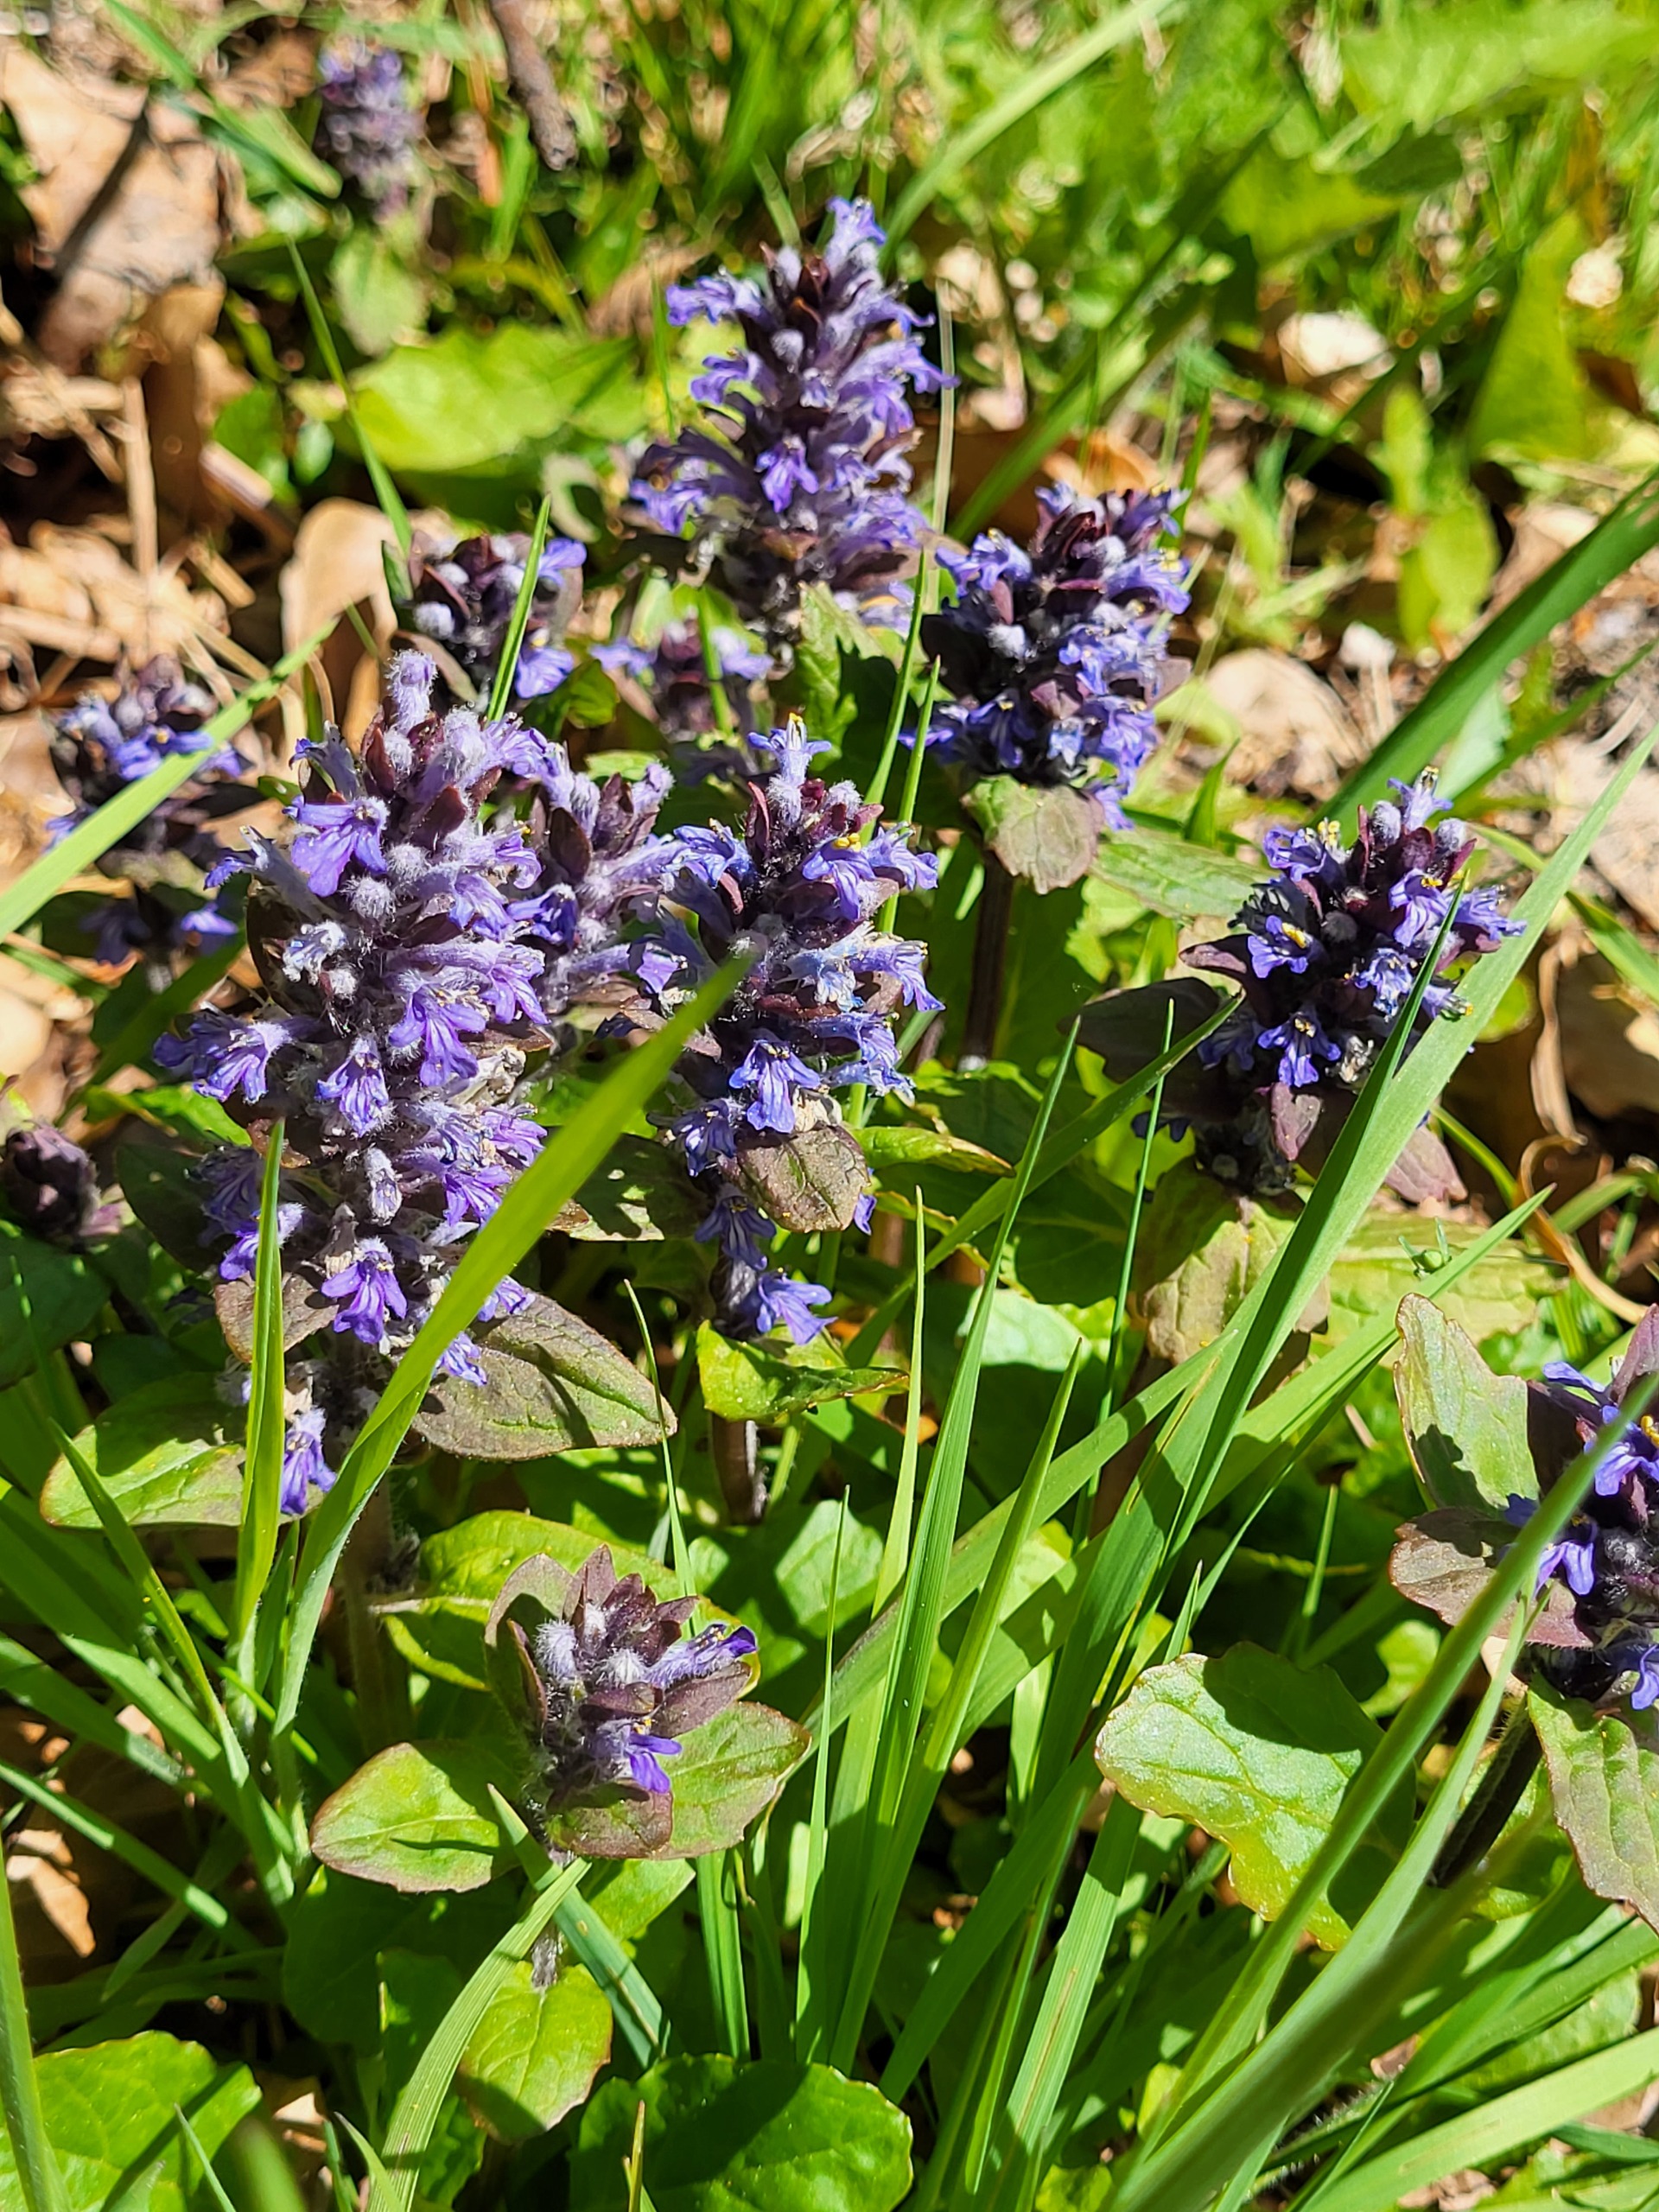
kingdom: Plantae
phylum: Tracheophyta
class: Magnoliopsida
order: Lamiales
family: Lamiaceae
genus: Ajuga
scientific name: Ajuga reptans
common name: Krybende læbeløs
